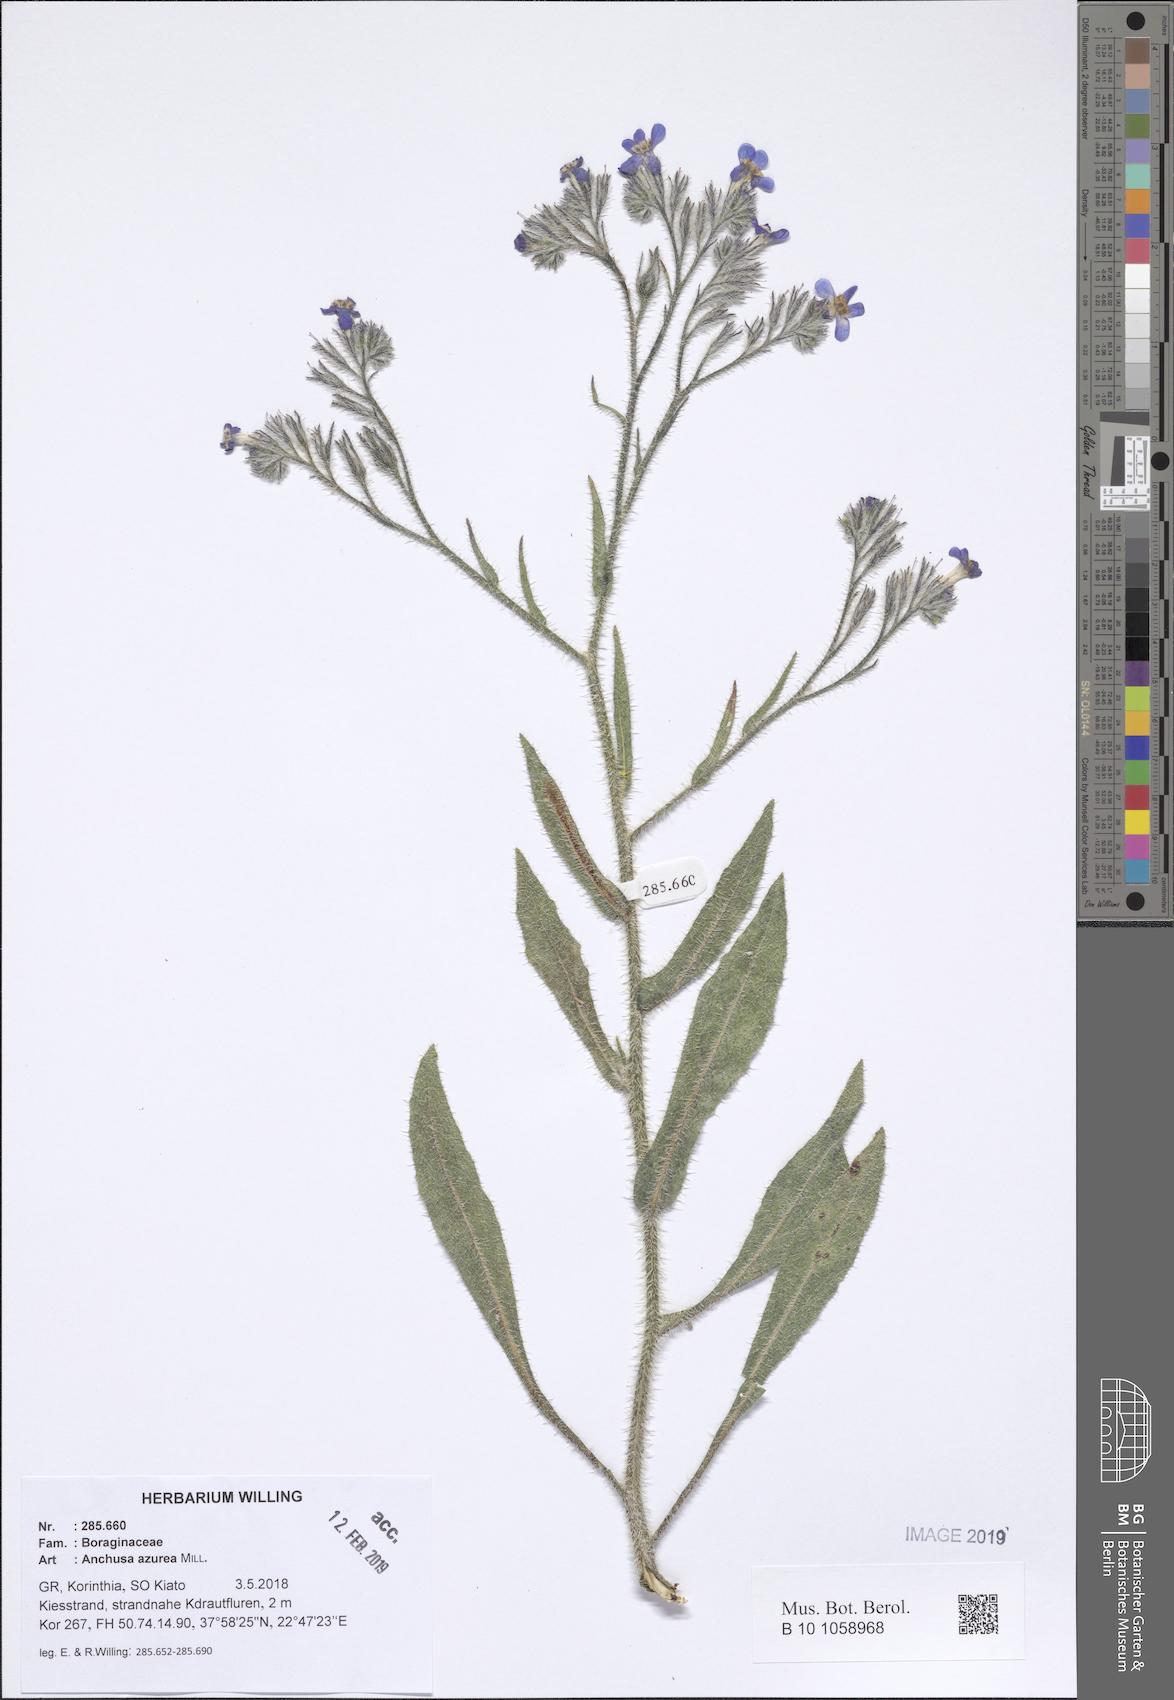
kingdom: Plantae
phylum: Tracheophyta
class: Magnoliopsida
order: Boraginales
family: Boraginaceae
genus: Anchusa
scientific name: Anchusa azurea
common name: Garden anchusa
